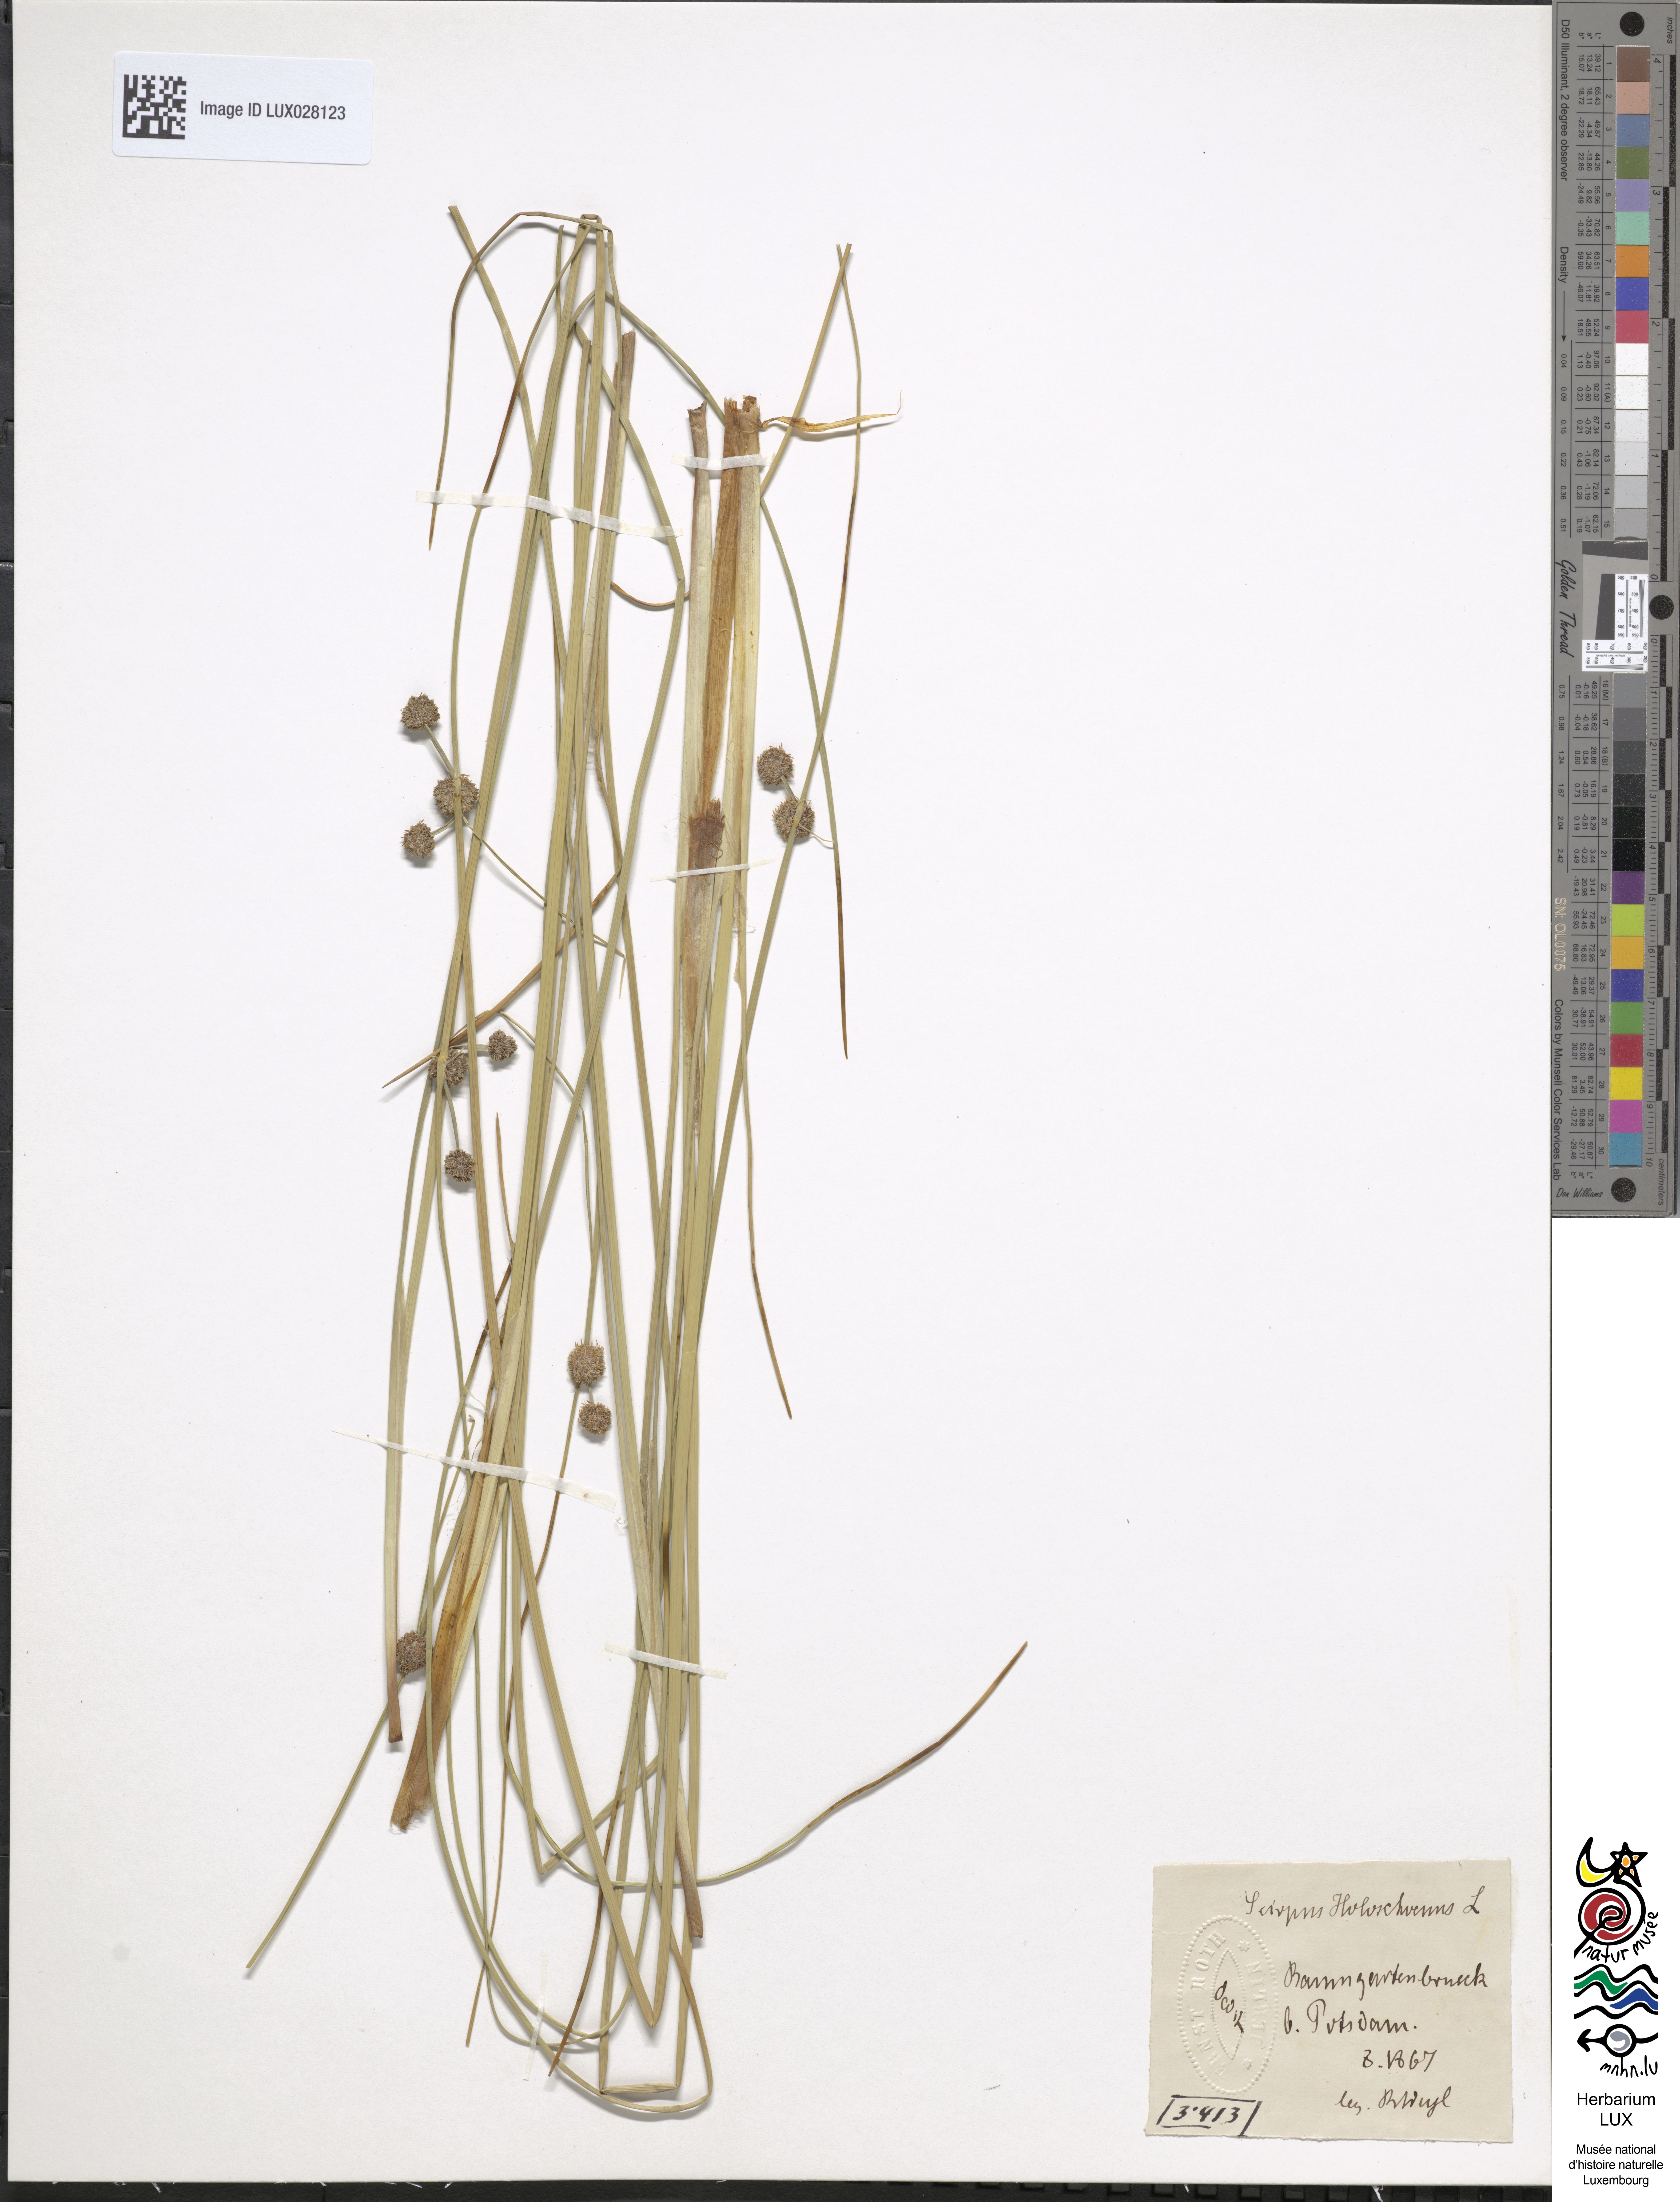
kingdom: Plantae
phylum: Tracheophyta
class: Liliopsida
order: Poales
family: Cyperaceae
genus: Scirpoides
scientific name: Scirpoides holoschoenus
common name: Round-headed club-rush
